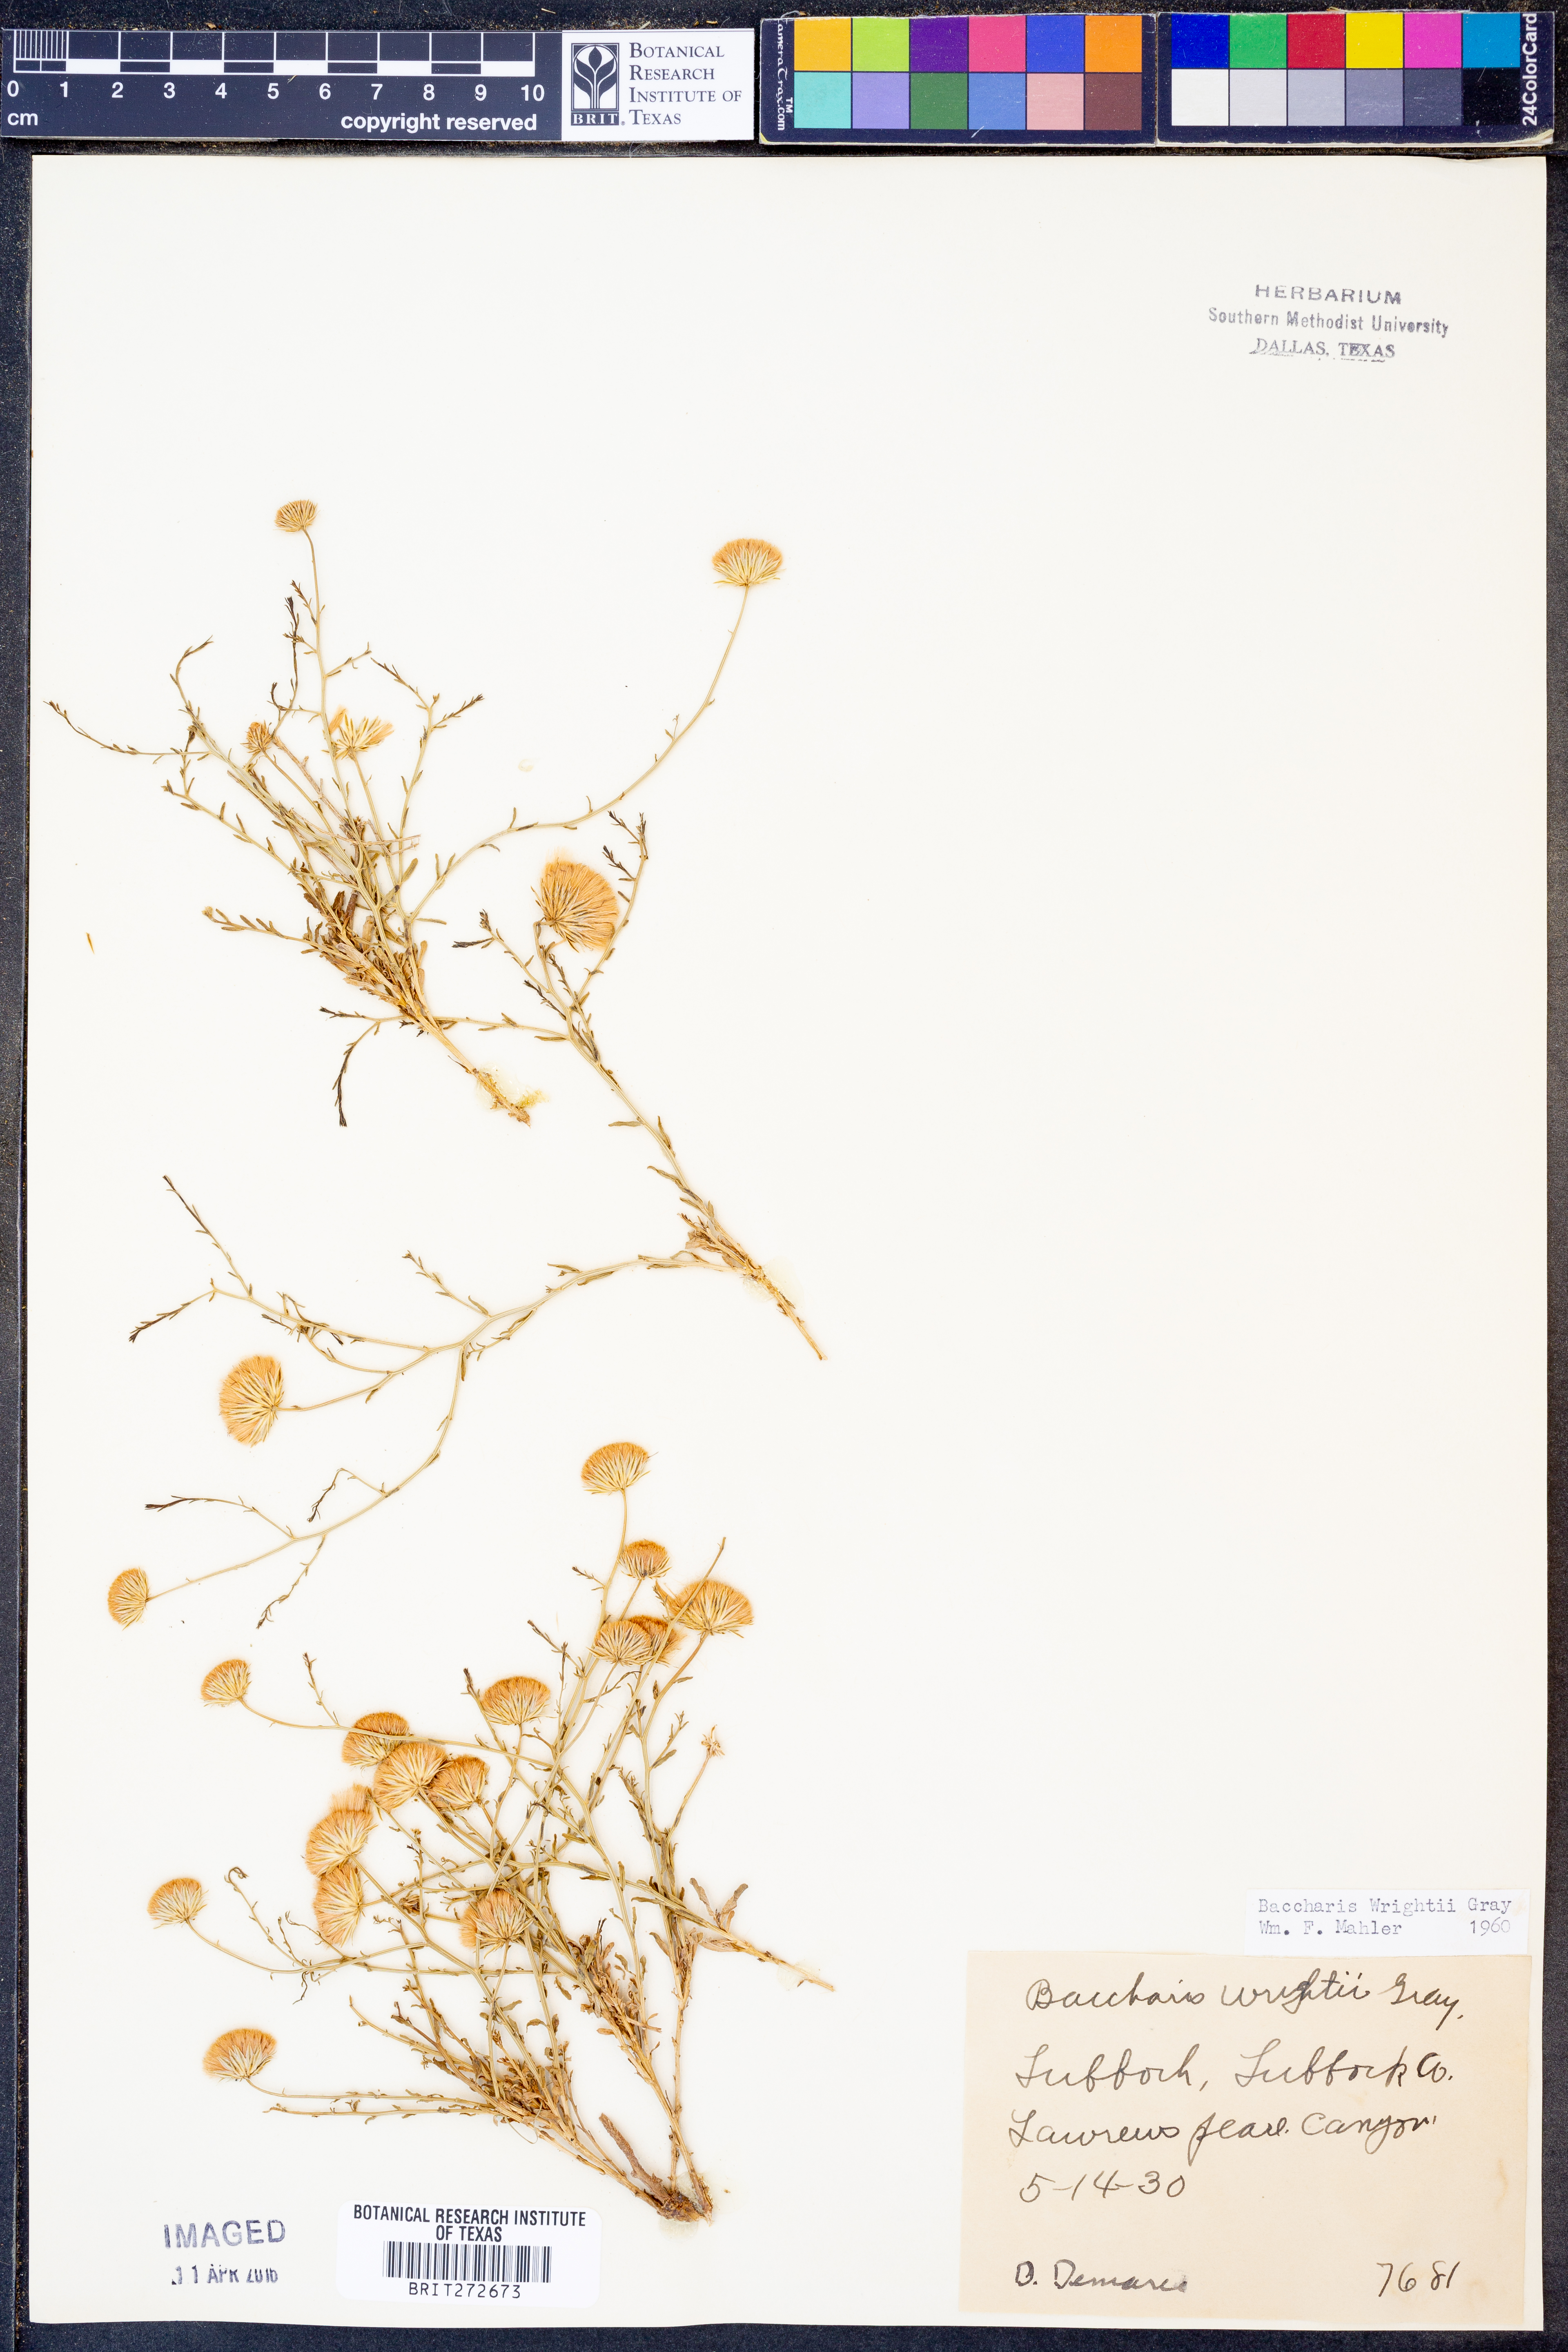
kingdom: Plantae
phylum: Tracheophyta
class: Magnoliopsida
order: Asterales
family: Asteraceae
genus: Baccharis
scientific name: Baccharis wrightii
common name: Wright's baccharis
